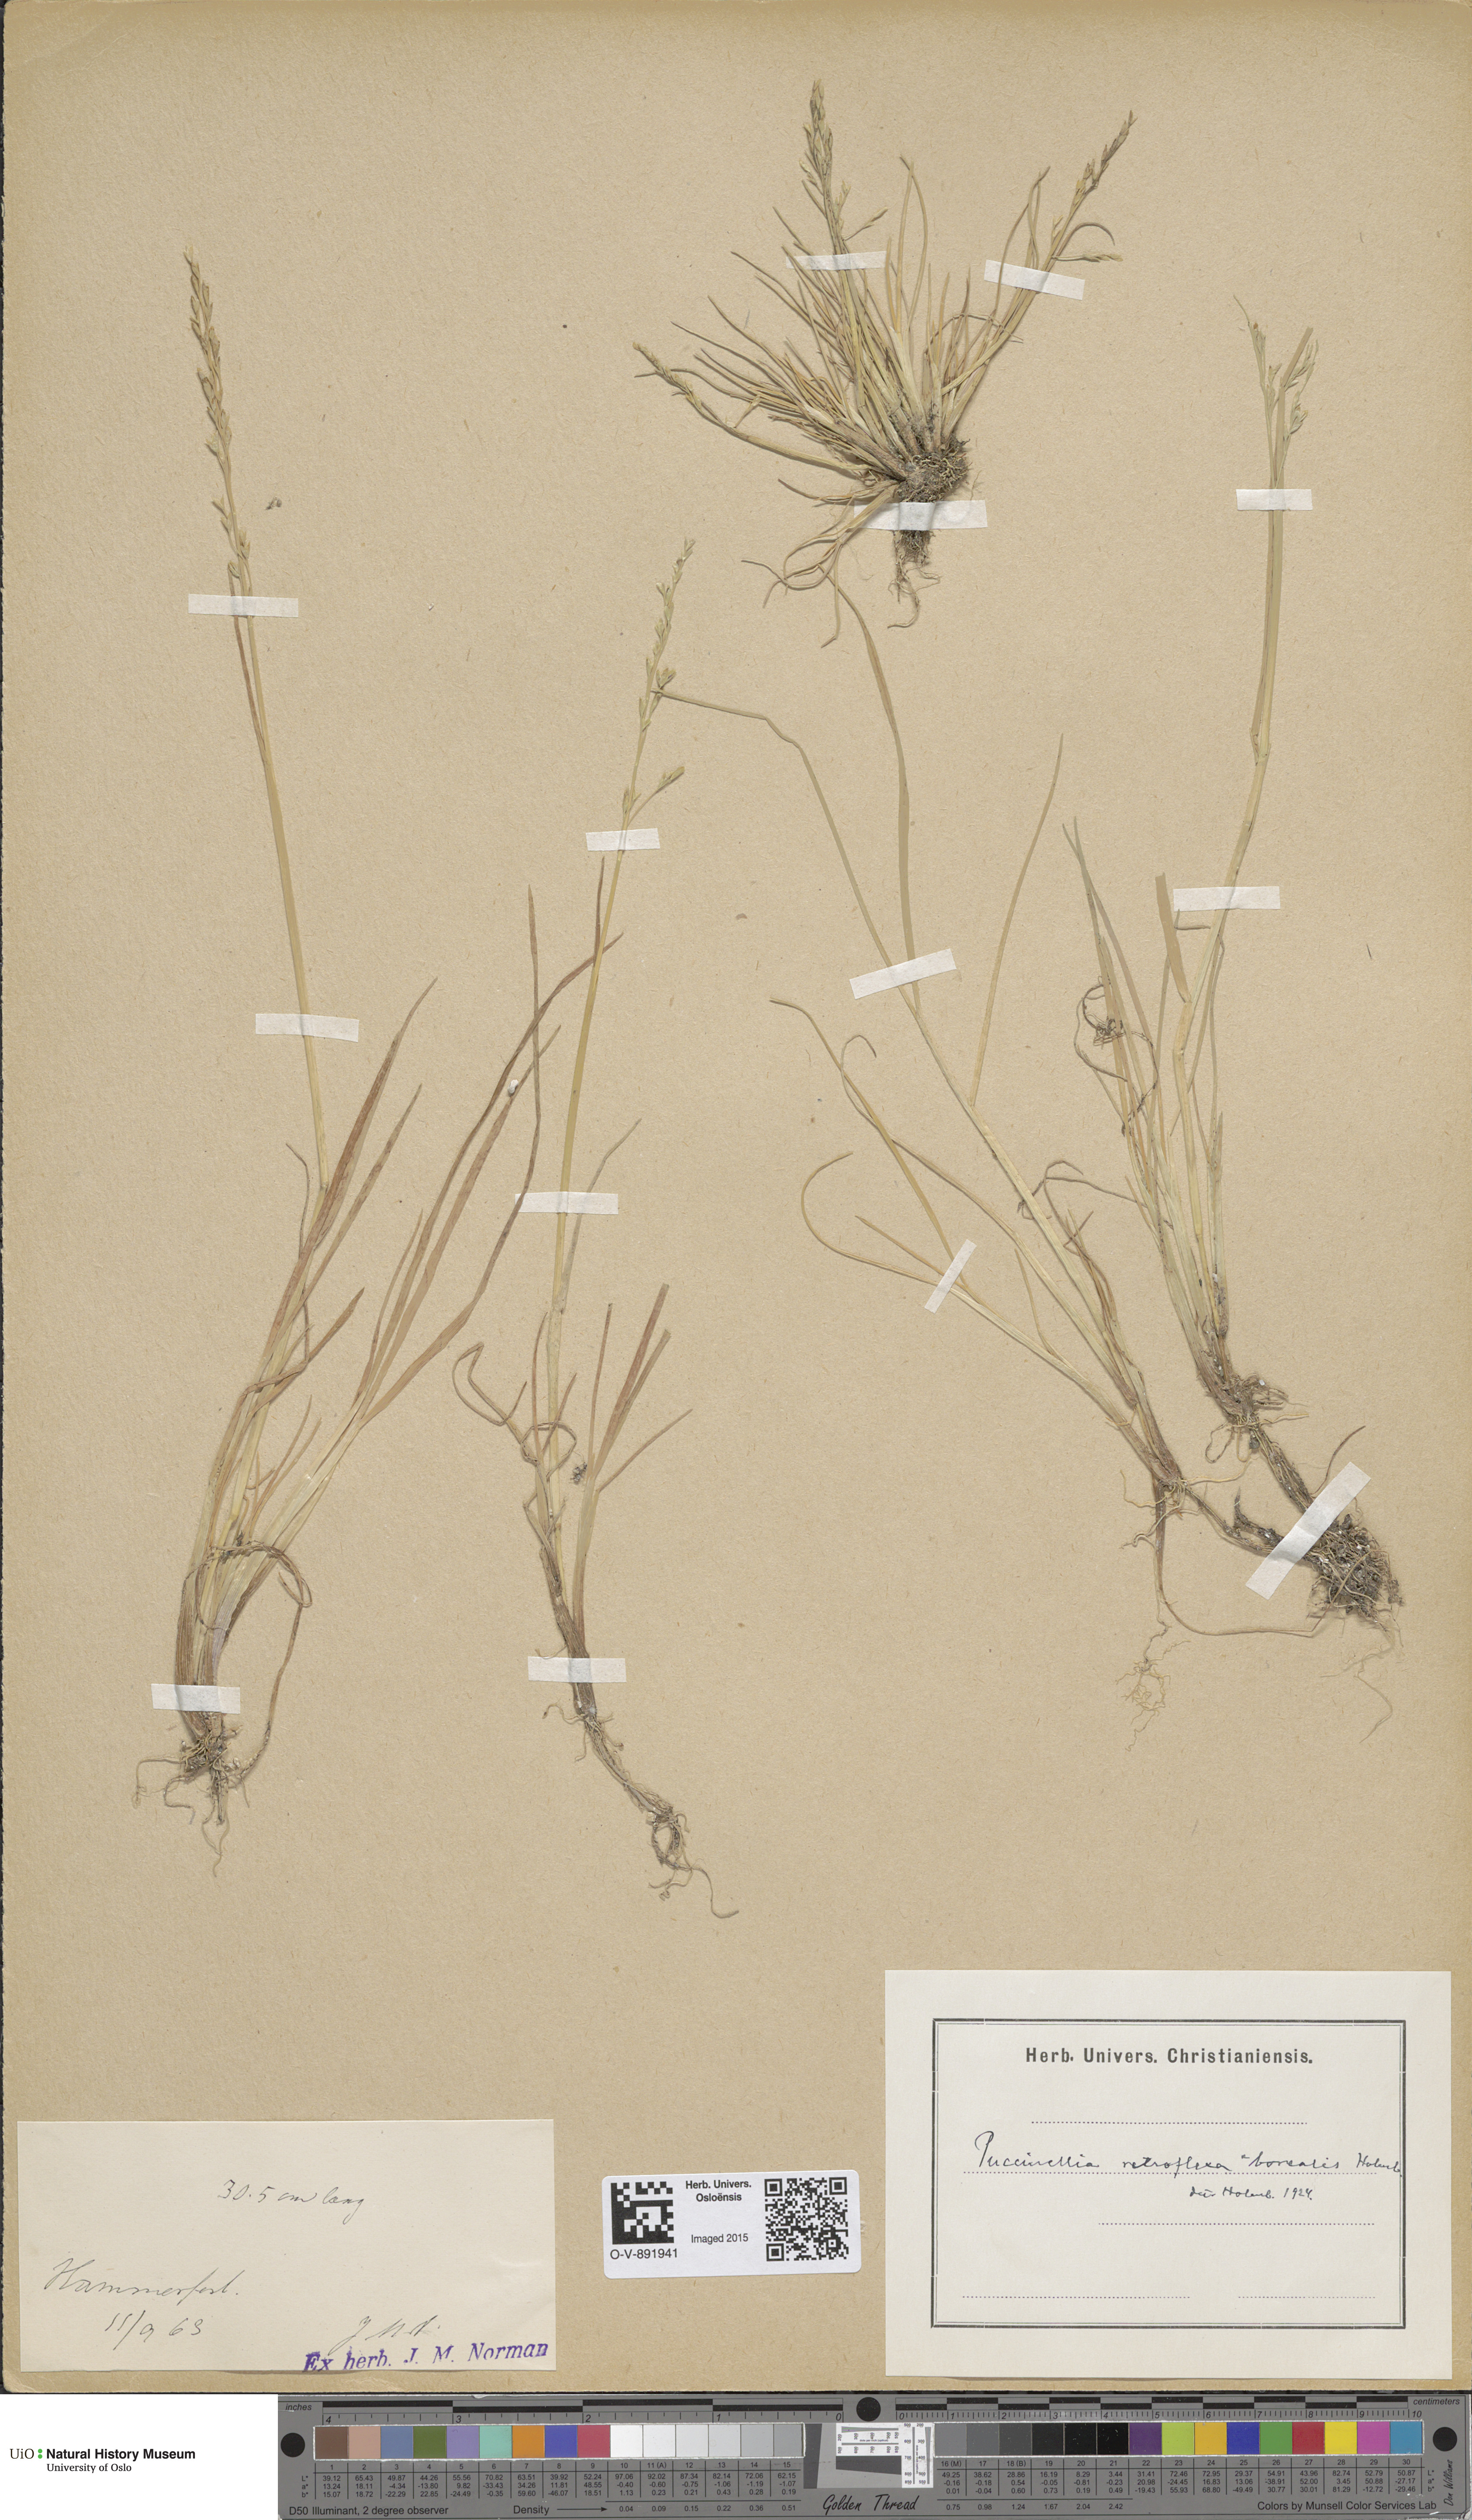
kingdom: Plantae
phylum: Tracheophyta
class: Liliopsida
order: Poales
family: Poaceae
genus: Puccinellia
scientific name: Puccinellia distans
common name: Weeping alkaligrass
